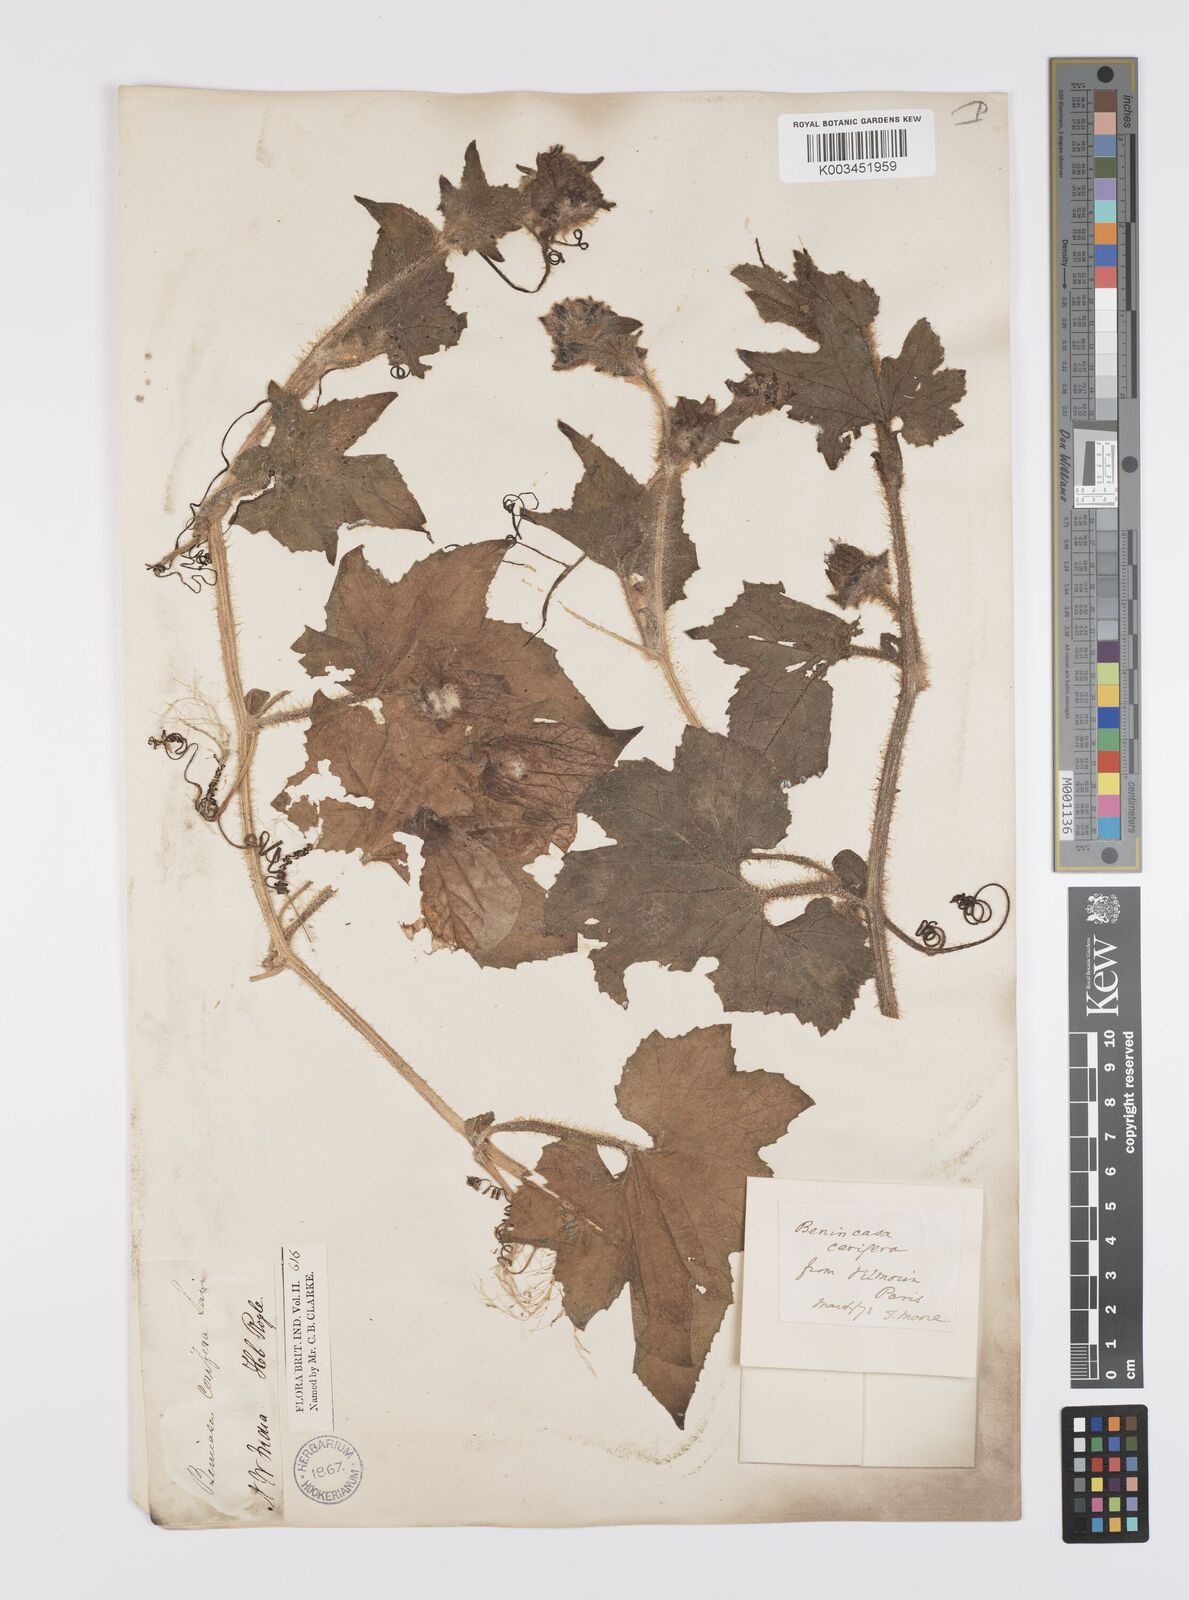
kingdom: Plantae
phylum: Tracheophyta
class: Magnoliopsida
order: Cucurbitales
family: Cucurbitaceae
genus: Benincasa
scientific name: Benincasa hispida
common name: Chinese-watermelon
